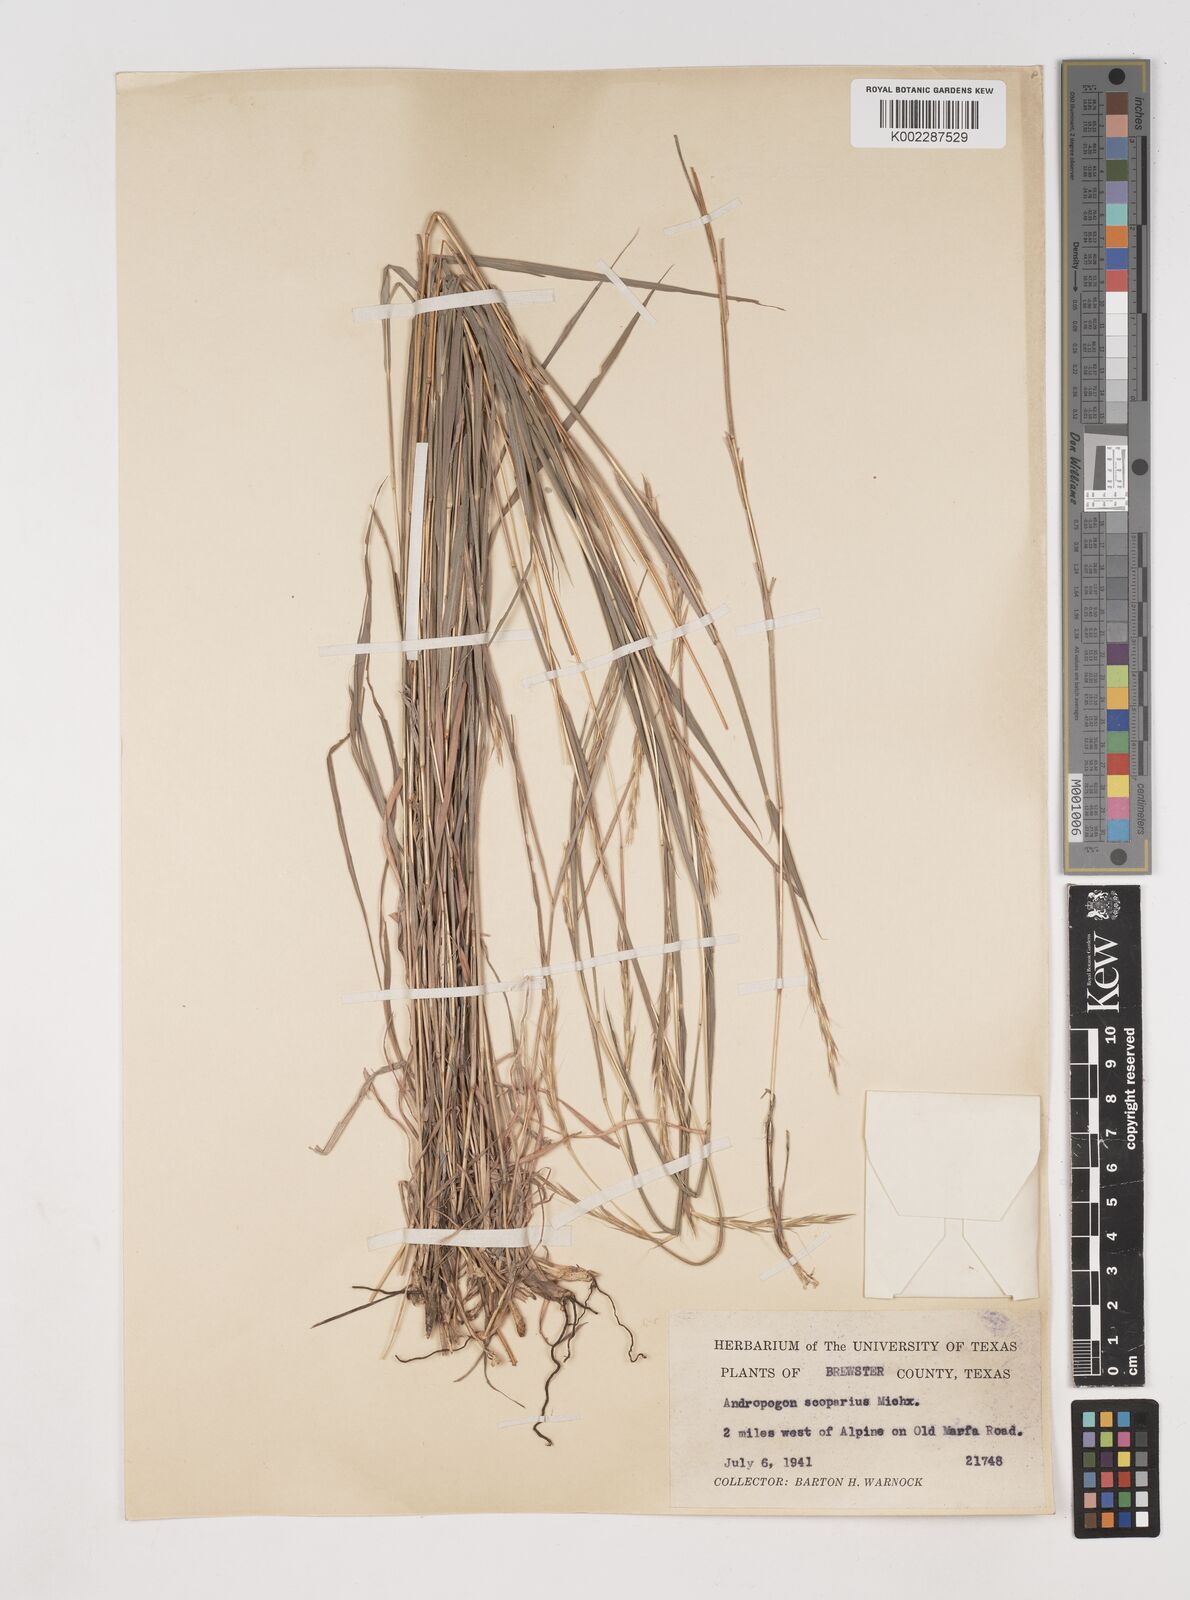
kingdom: Plantae
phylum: Tracheophyta
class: Liliopsida
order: Poales
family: Poaceae
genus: Schizachyrium
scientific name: Schizachyrium sanguineum
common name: Crimson bluestem
